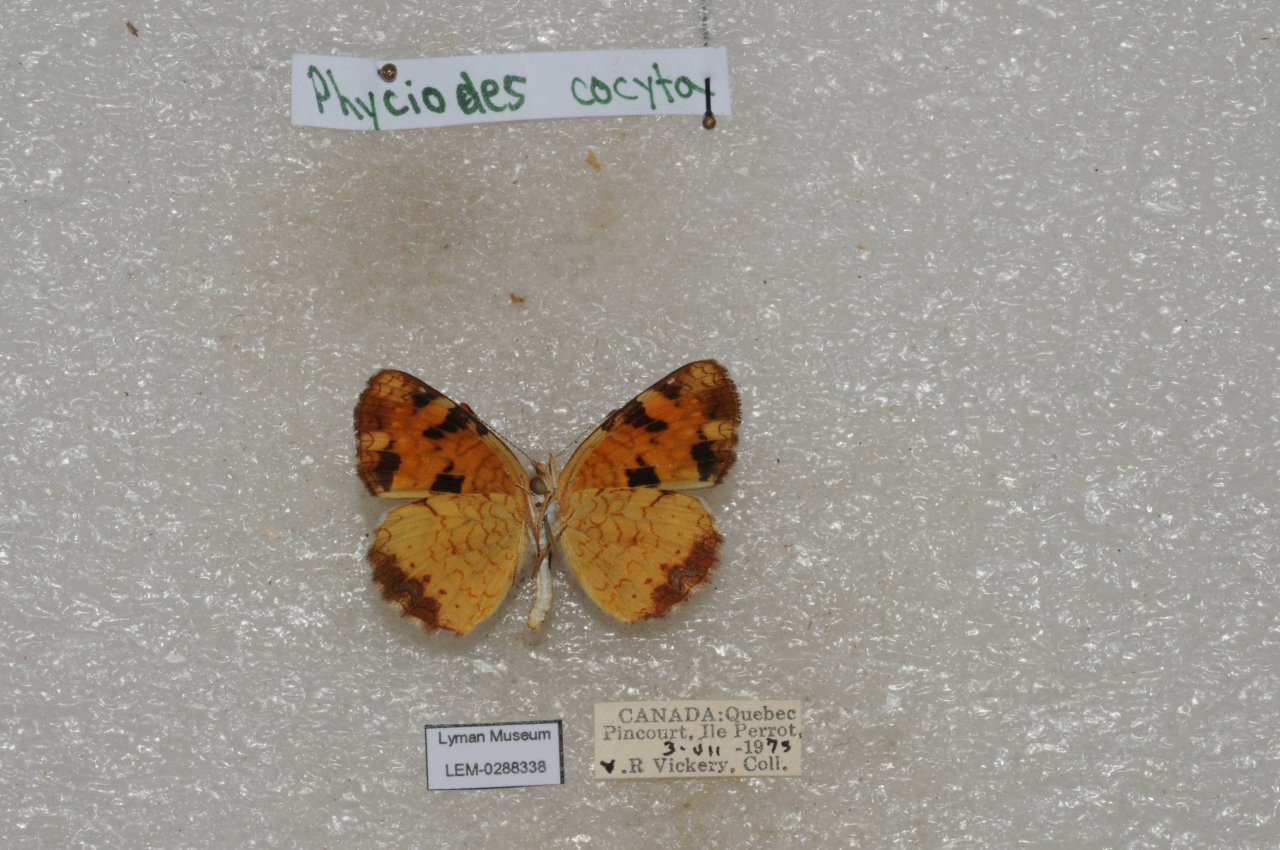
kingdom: Animalia
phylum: Arthropoda
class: Insecta
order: Lepidoptera
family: Nymphalidae
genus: Phyciodes
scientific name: Phyciodes tharos
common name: Northern Crescent
